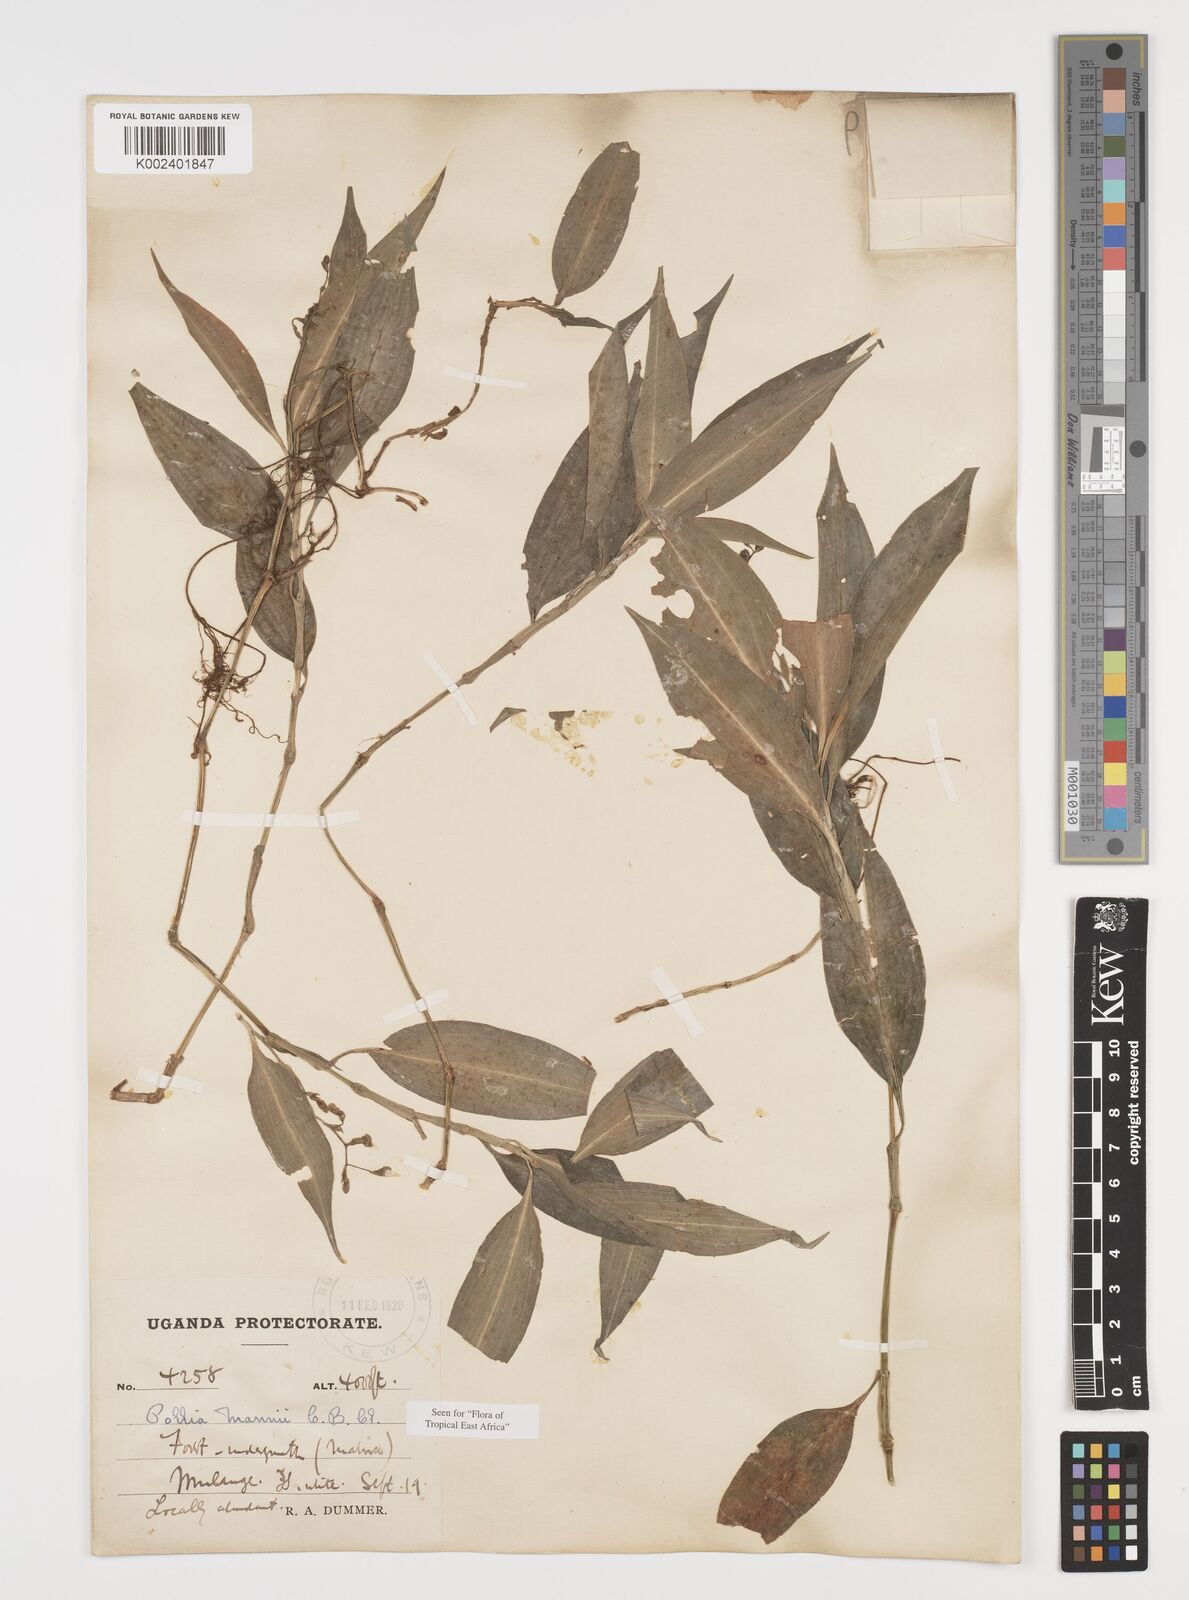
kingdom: Plantae
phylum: Tracheophyta
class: Liliopsida
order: Commelinales
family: Commelinaceae
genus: Pollia
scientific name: Pollia mannii
